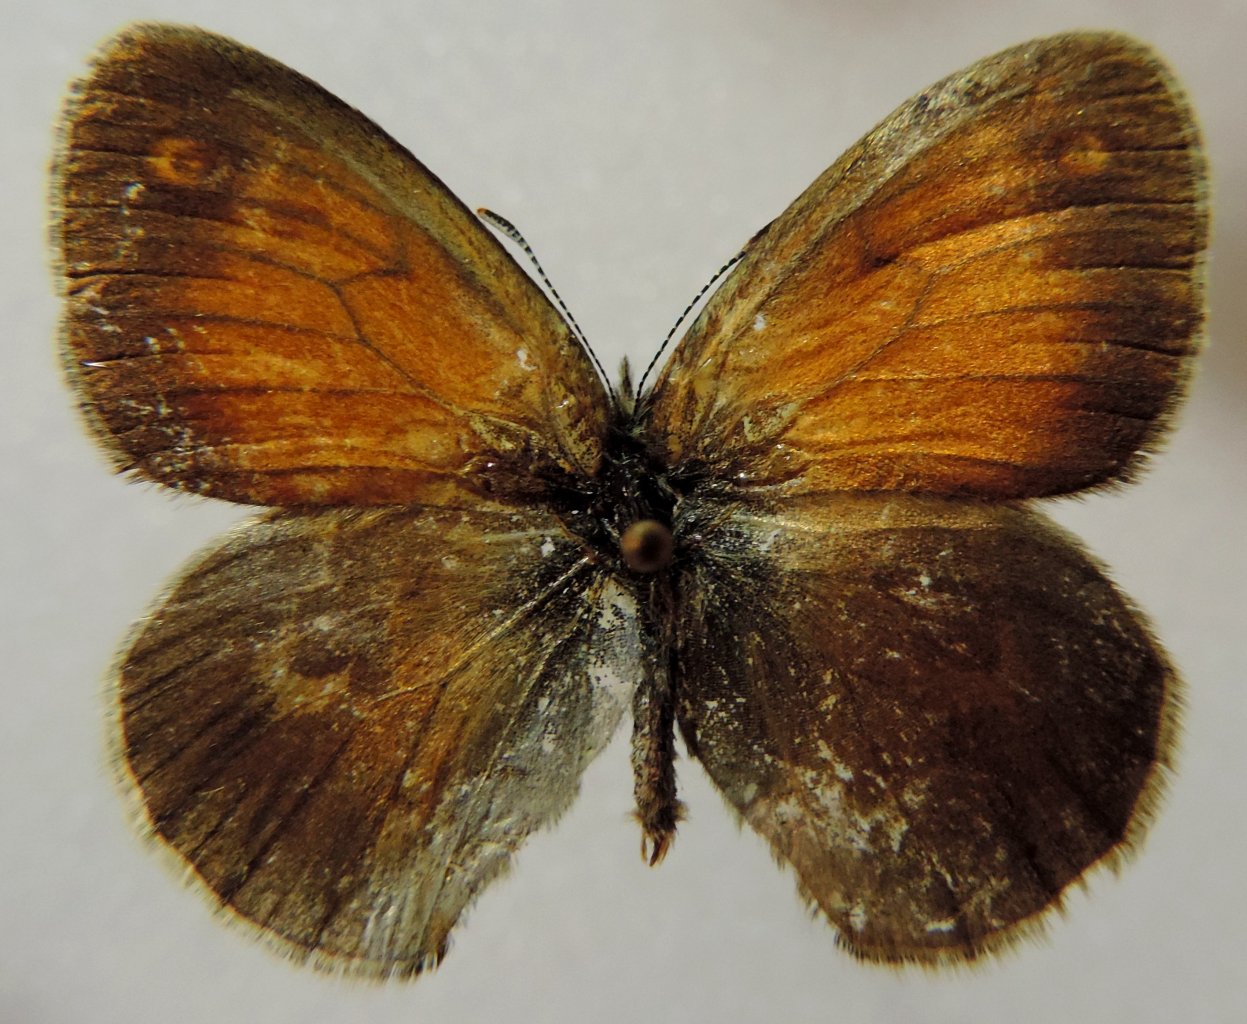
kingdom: Animalia
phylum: Arthropoda
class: Insecta
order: Lepidoptera
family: Nymphalidae
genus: Coenonympha
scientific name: Coenonympha tullia
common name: Large Heath
